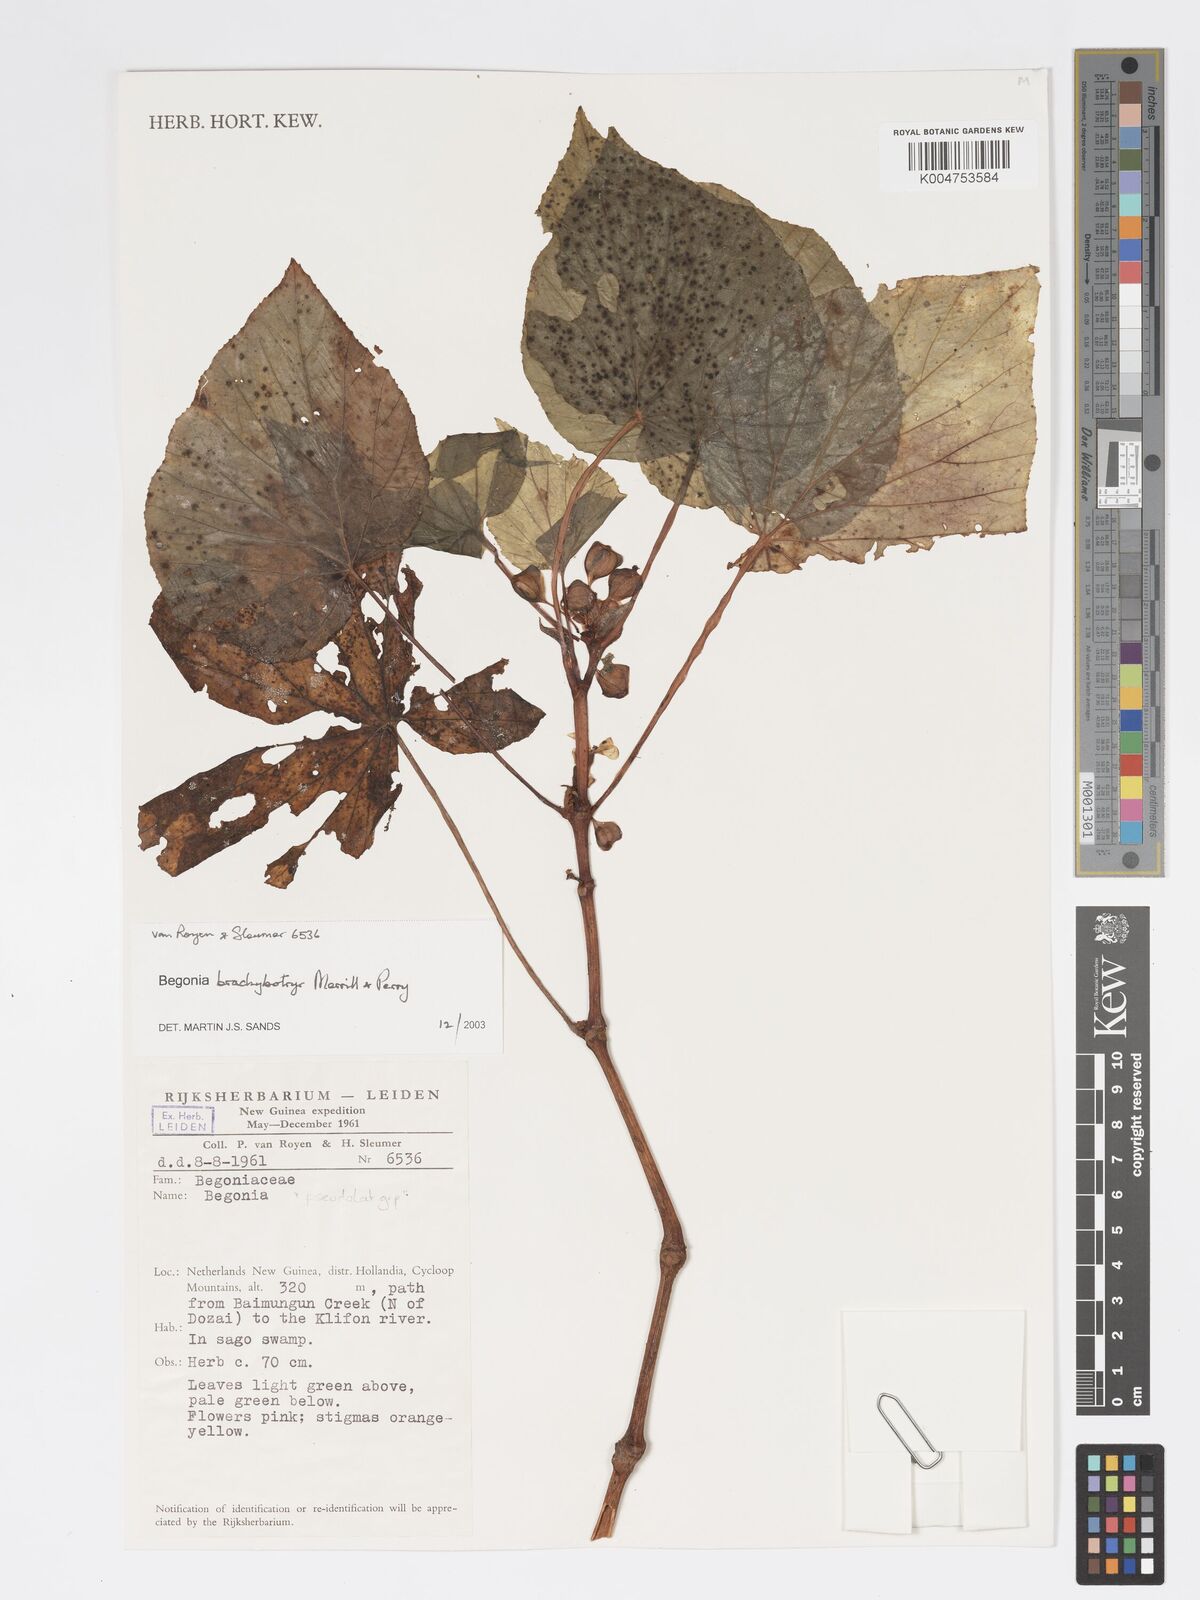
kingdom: Plantae
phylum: Tracheophyta
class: Magnoliopsida
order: Cucurbitales
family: Begoniaceae
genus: Begonia
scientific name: Begonia brachybotrys
